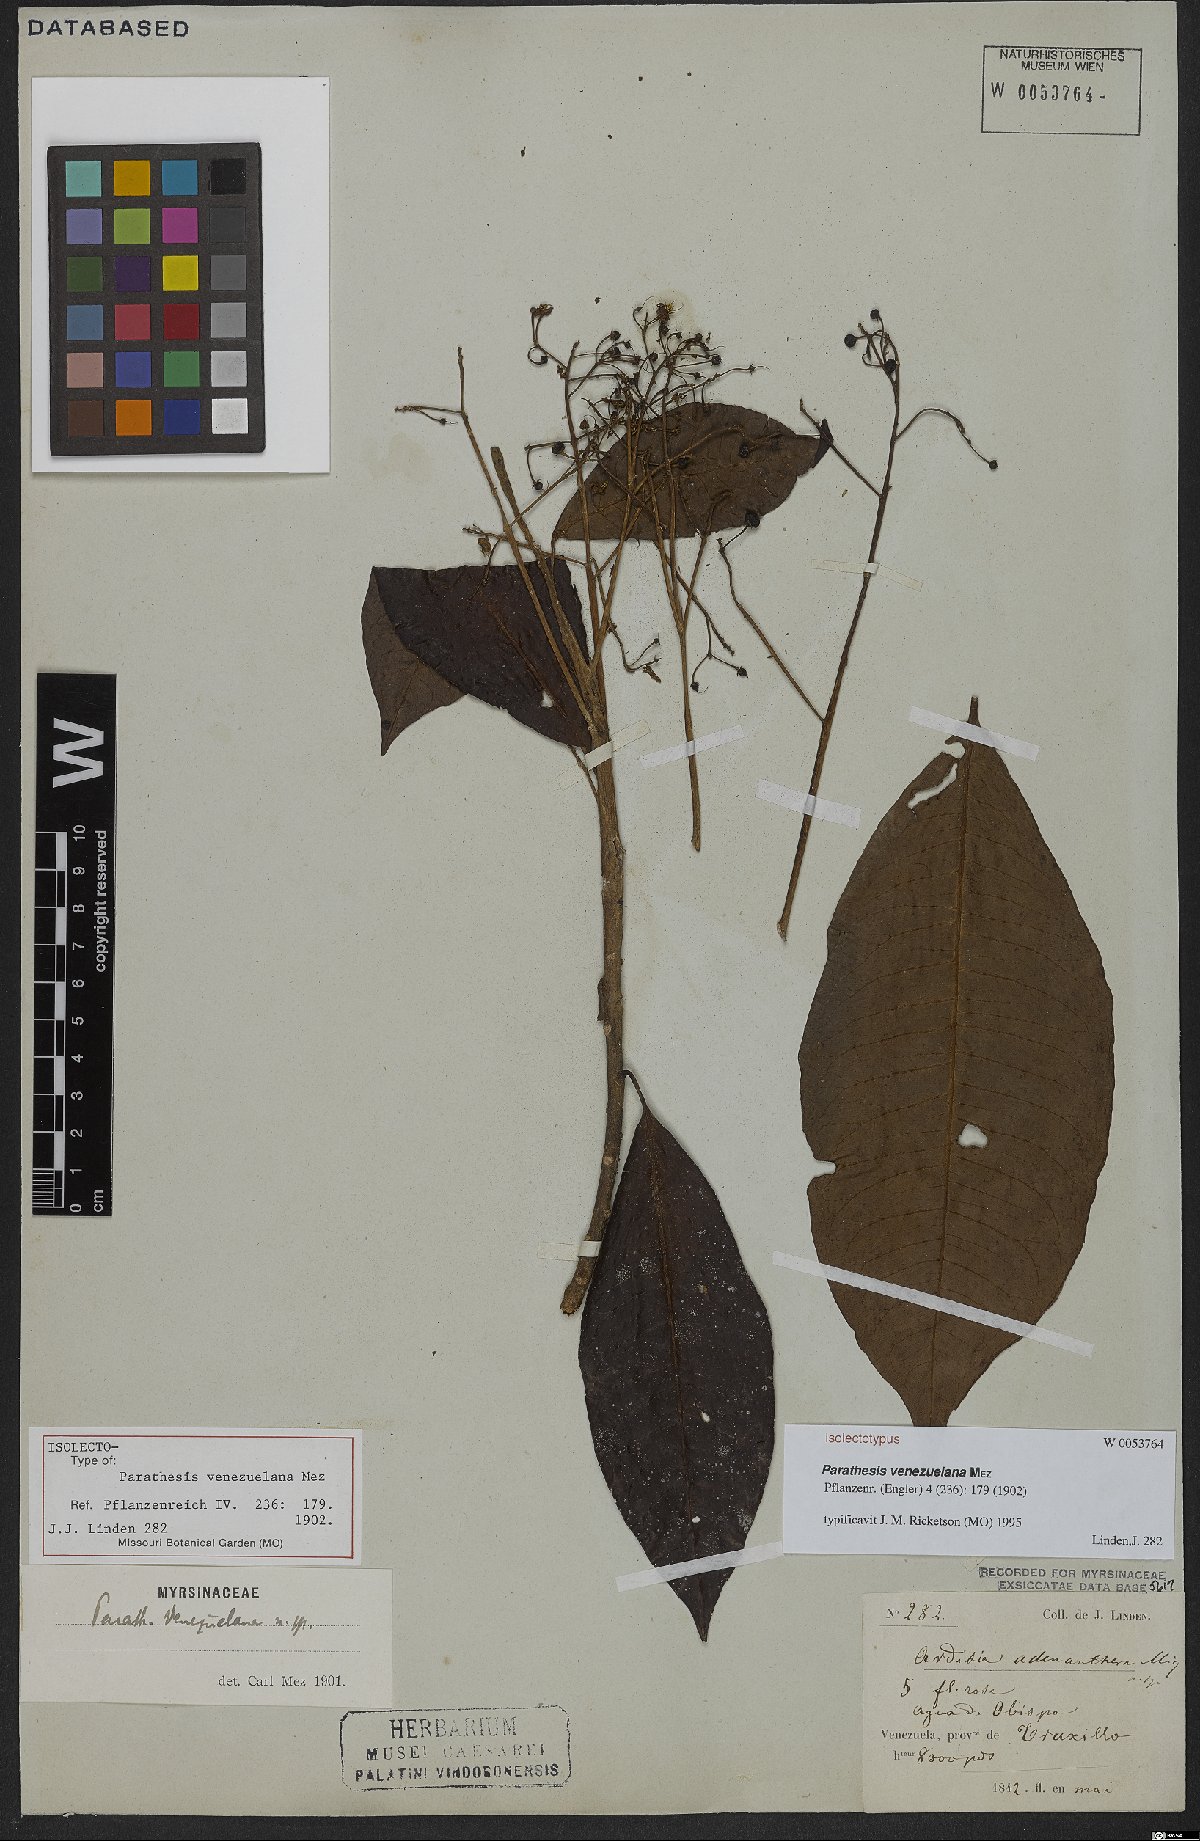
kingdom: Plantae
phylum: Tracheophyta
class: Magnoliopsida
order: Ericales
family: Primulaceae
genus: Parathesis
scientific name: Parathesis venezuelana
